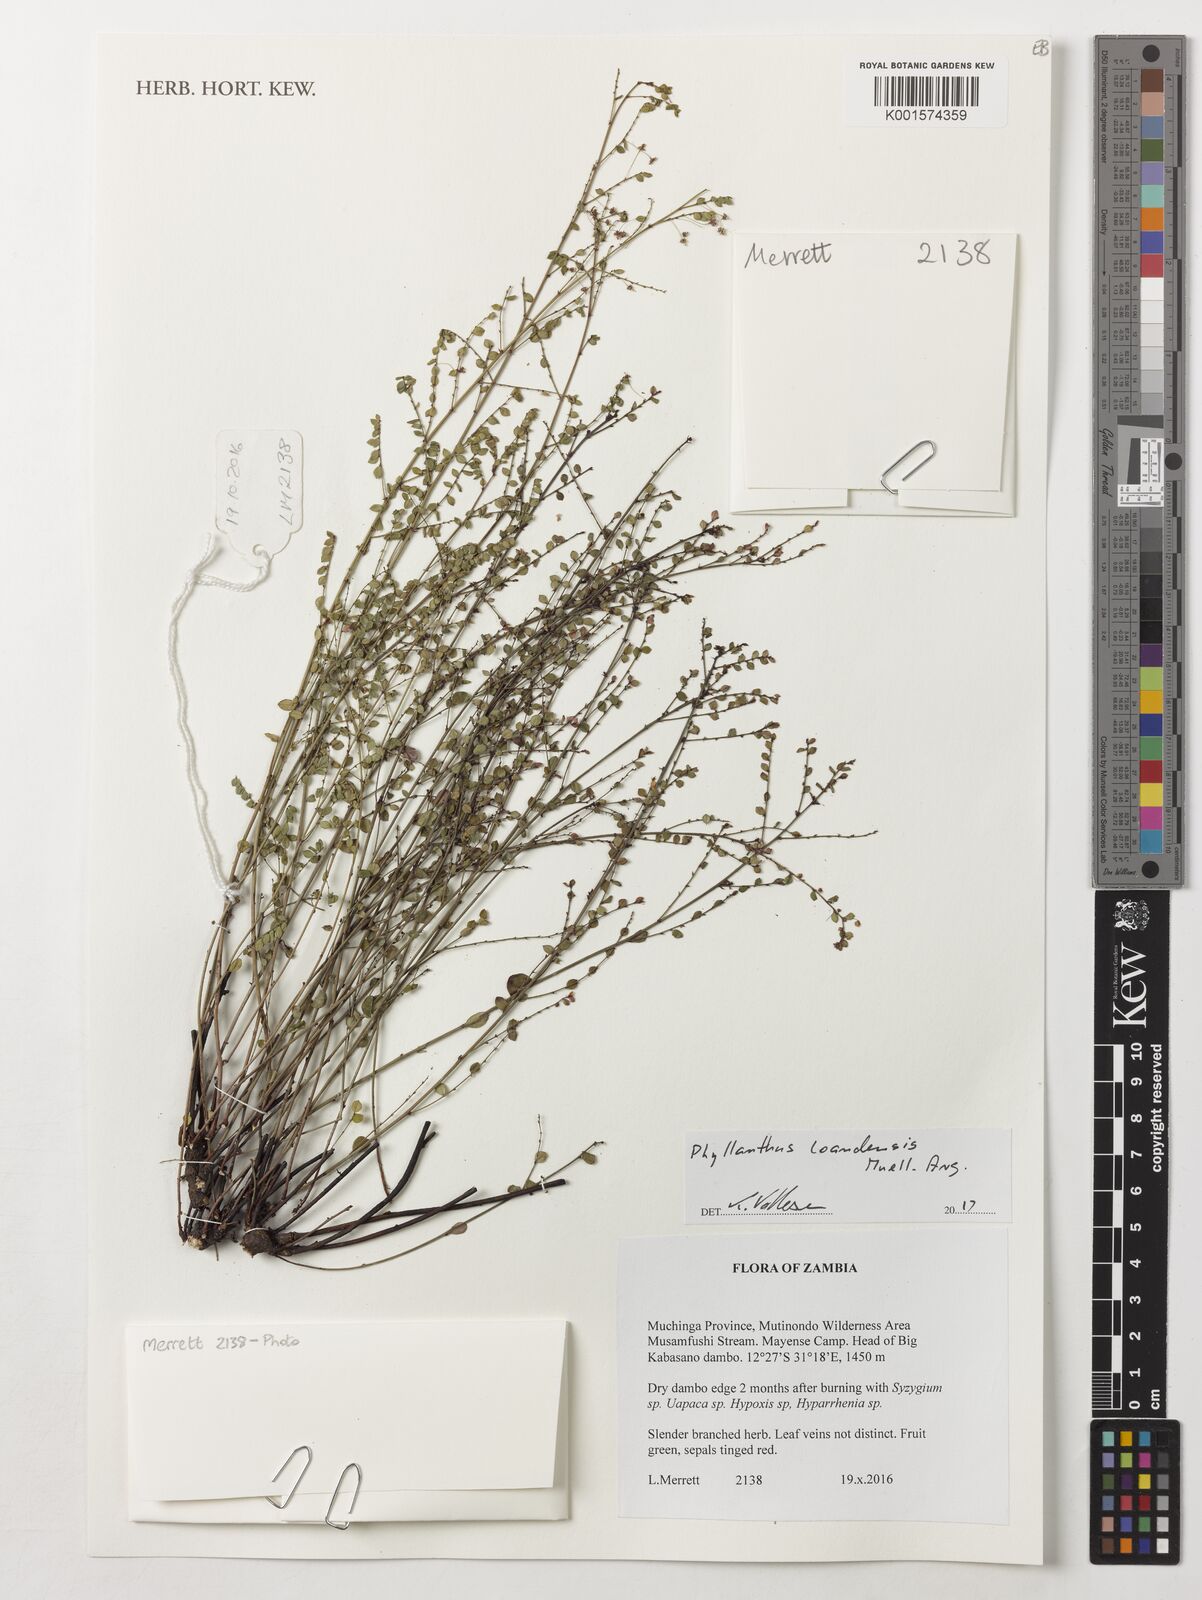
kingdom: Plantae
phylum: Tracheophyta
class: Magnoliopsida
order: Malpighiales
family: Phyllanthaceae
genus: Phyllanthus
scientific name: Phyllanthus loandensis
